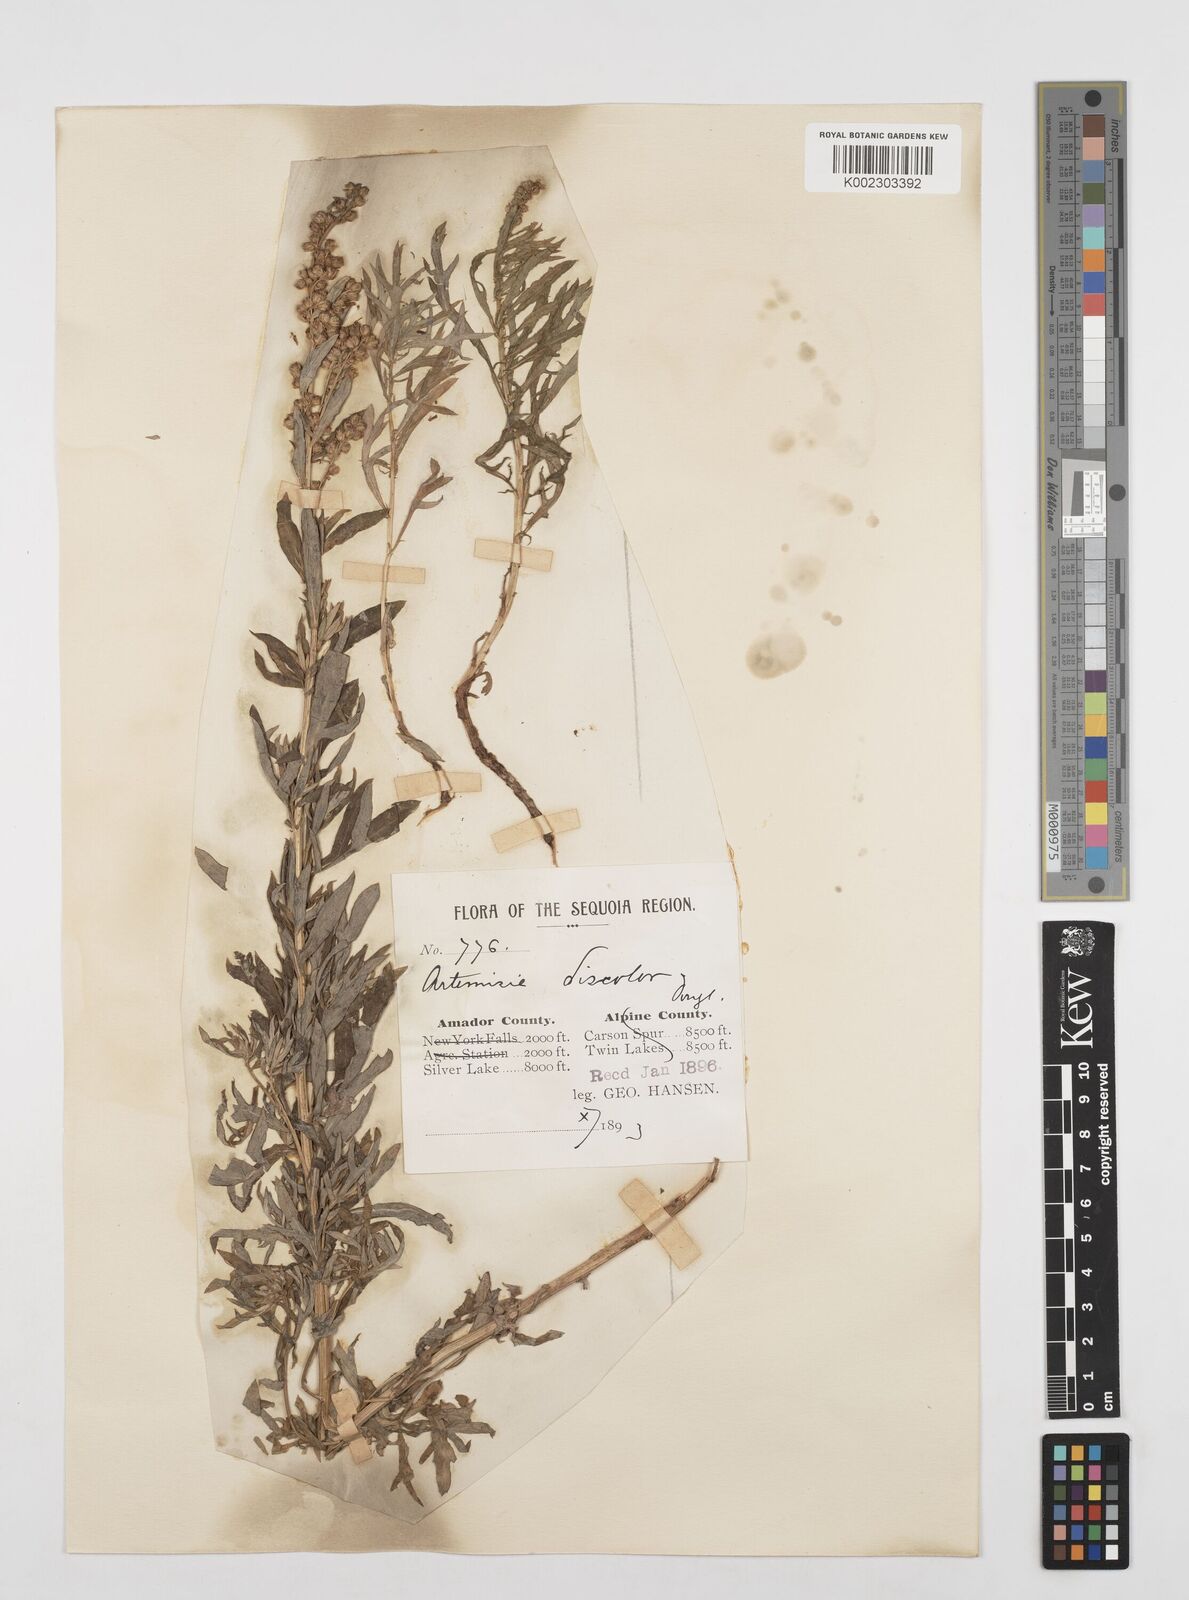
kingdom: Plantae
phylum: Tracheophyta
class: Magnoliopsida
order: Asterales
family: Asteraceae
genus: Artemisia
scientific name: Artemisia
